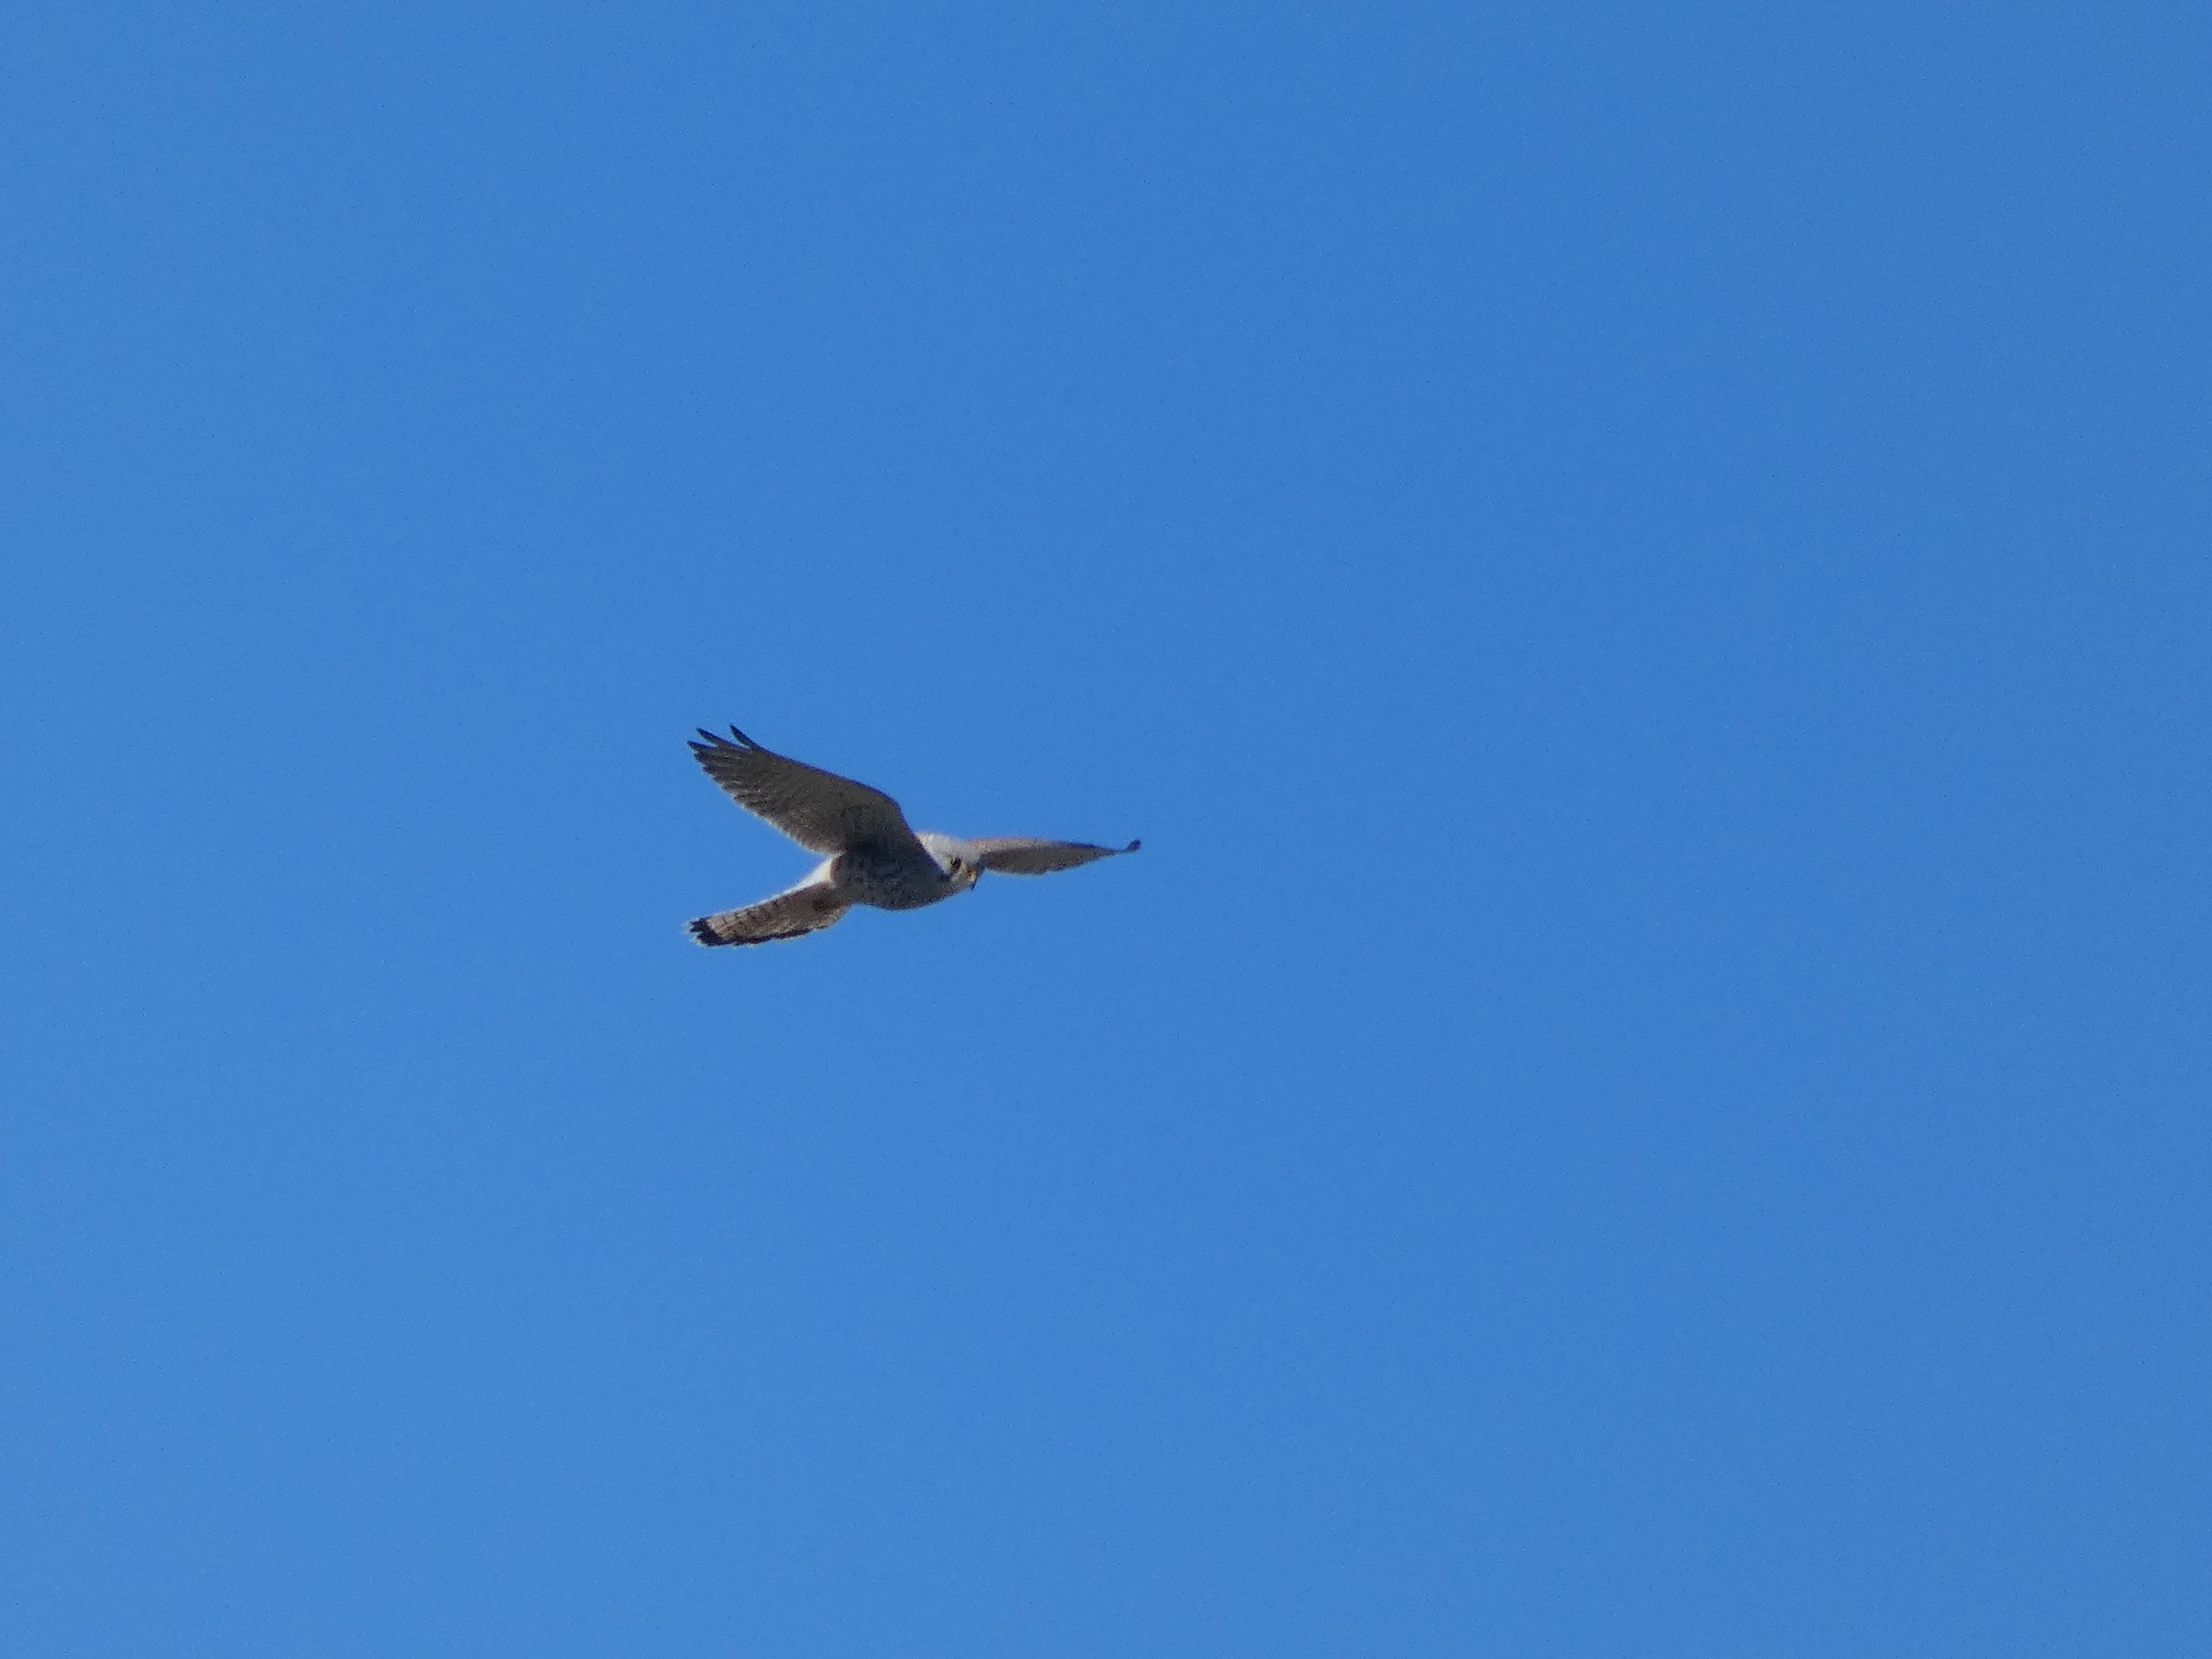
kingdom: Animalia
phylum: Chordata
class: Aves
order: Falconiformes
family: Falconidae
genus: Falco
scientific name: Falco tinnunculus
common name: Tårnfalk
